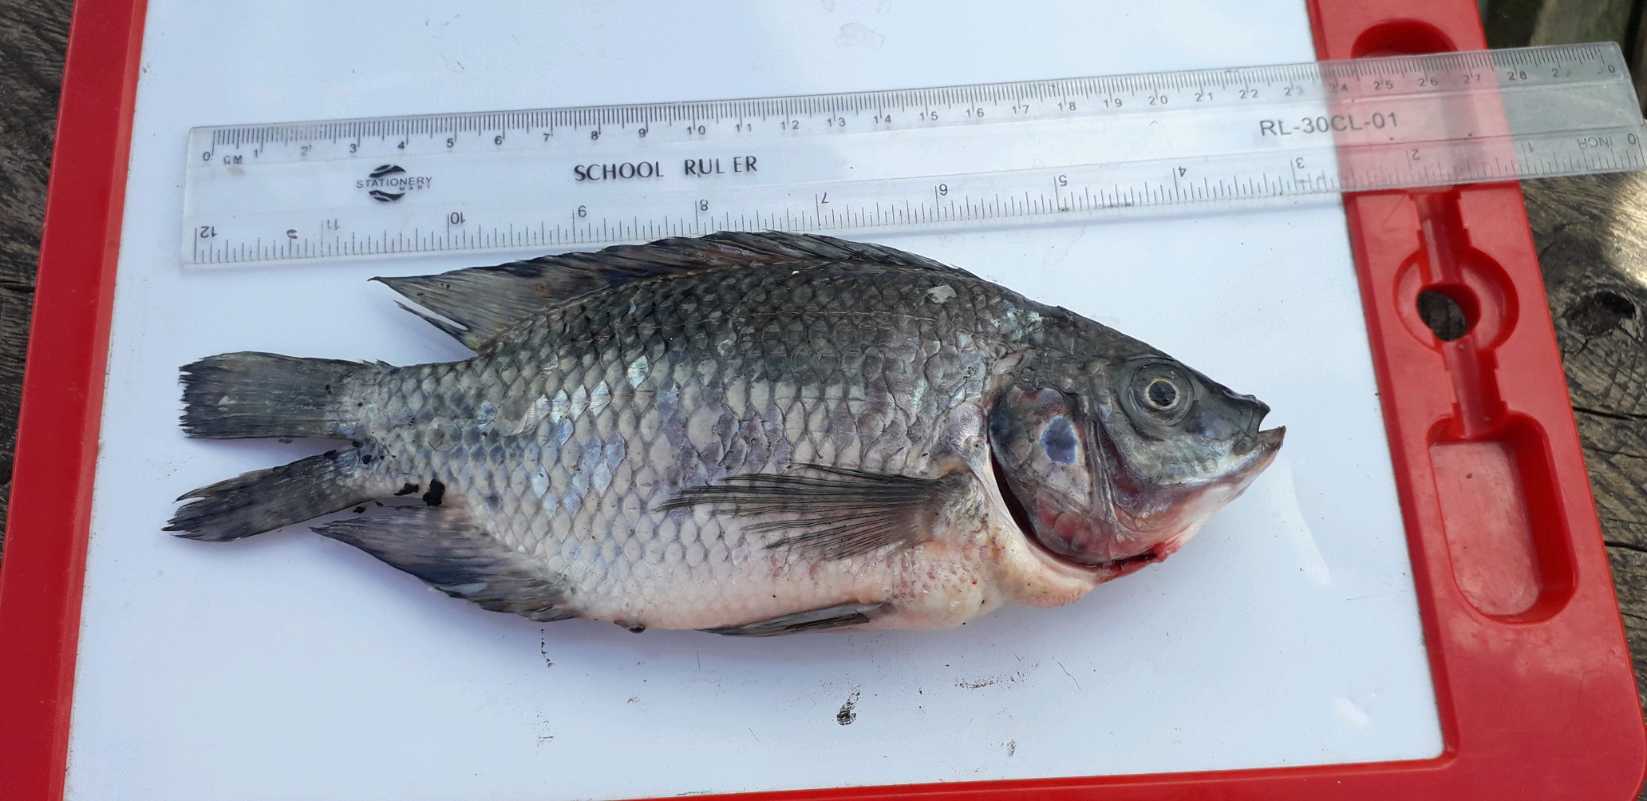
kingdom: Animalia
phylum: Chordata
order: Perciformes
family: Cichlidae
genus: Oreochromis
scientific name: Oreochromis niloticus
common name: Nile tilapia
